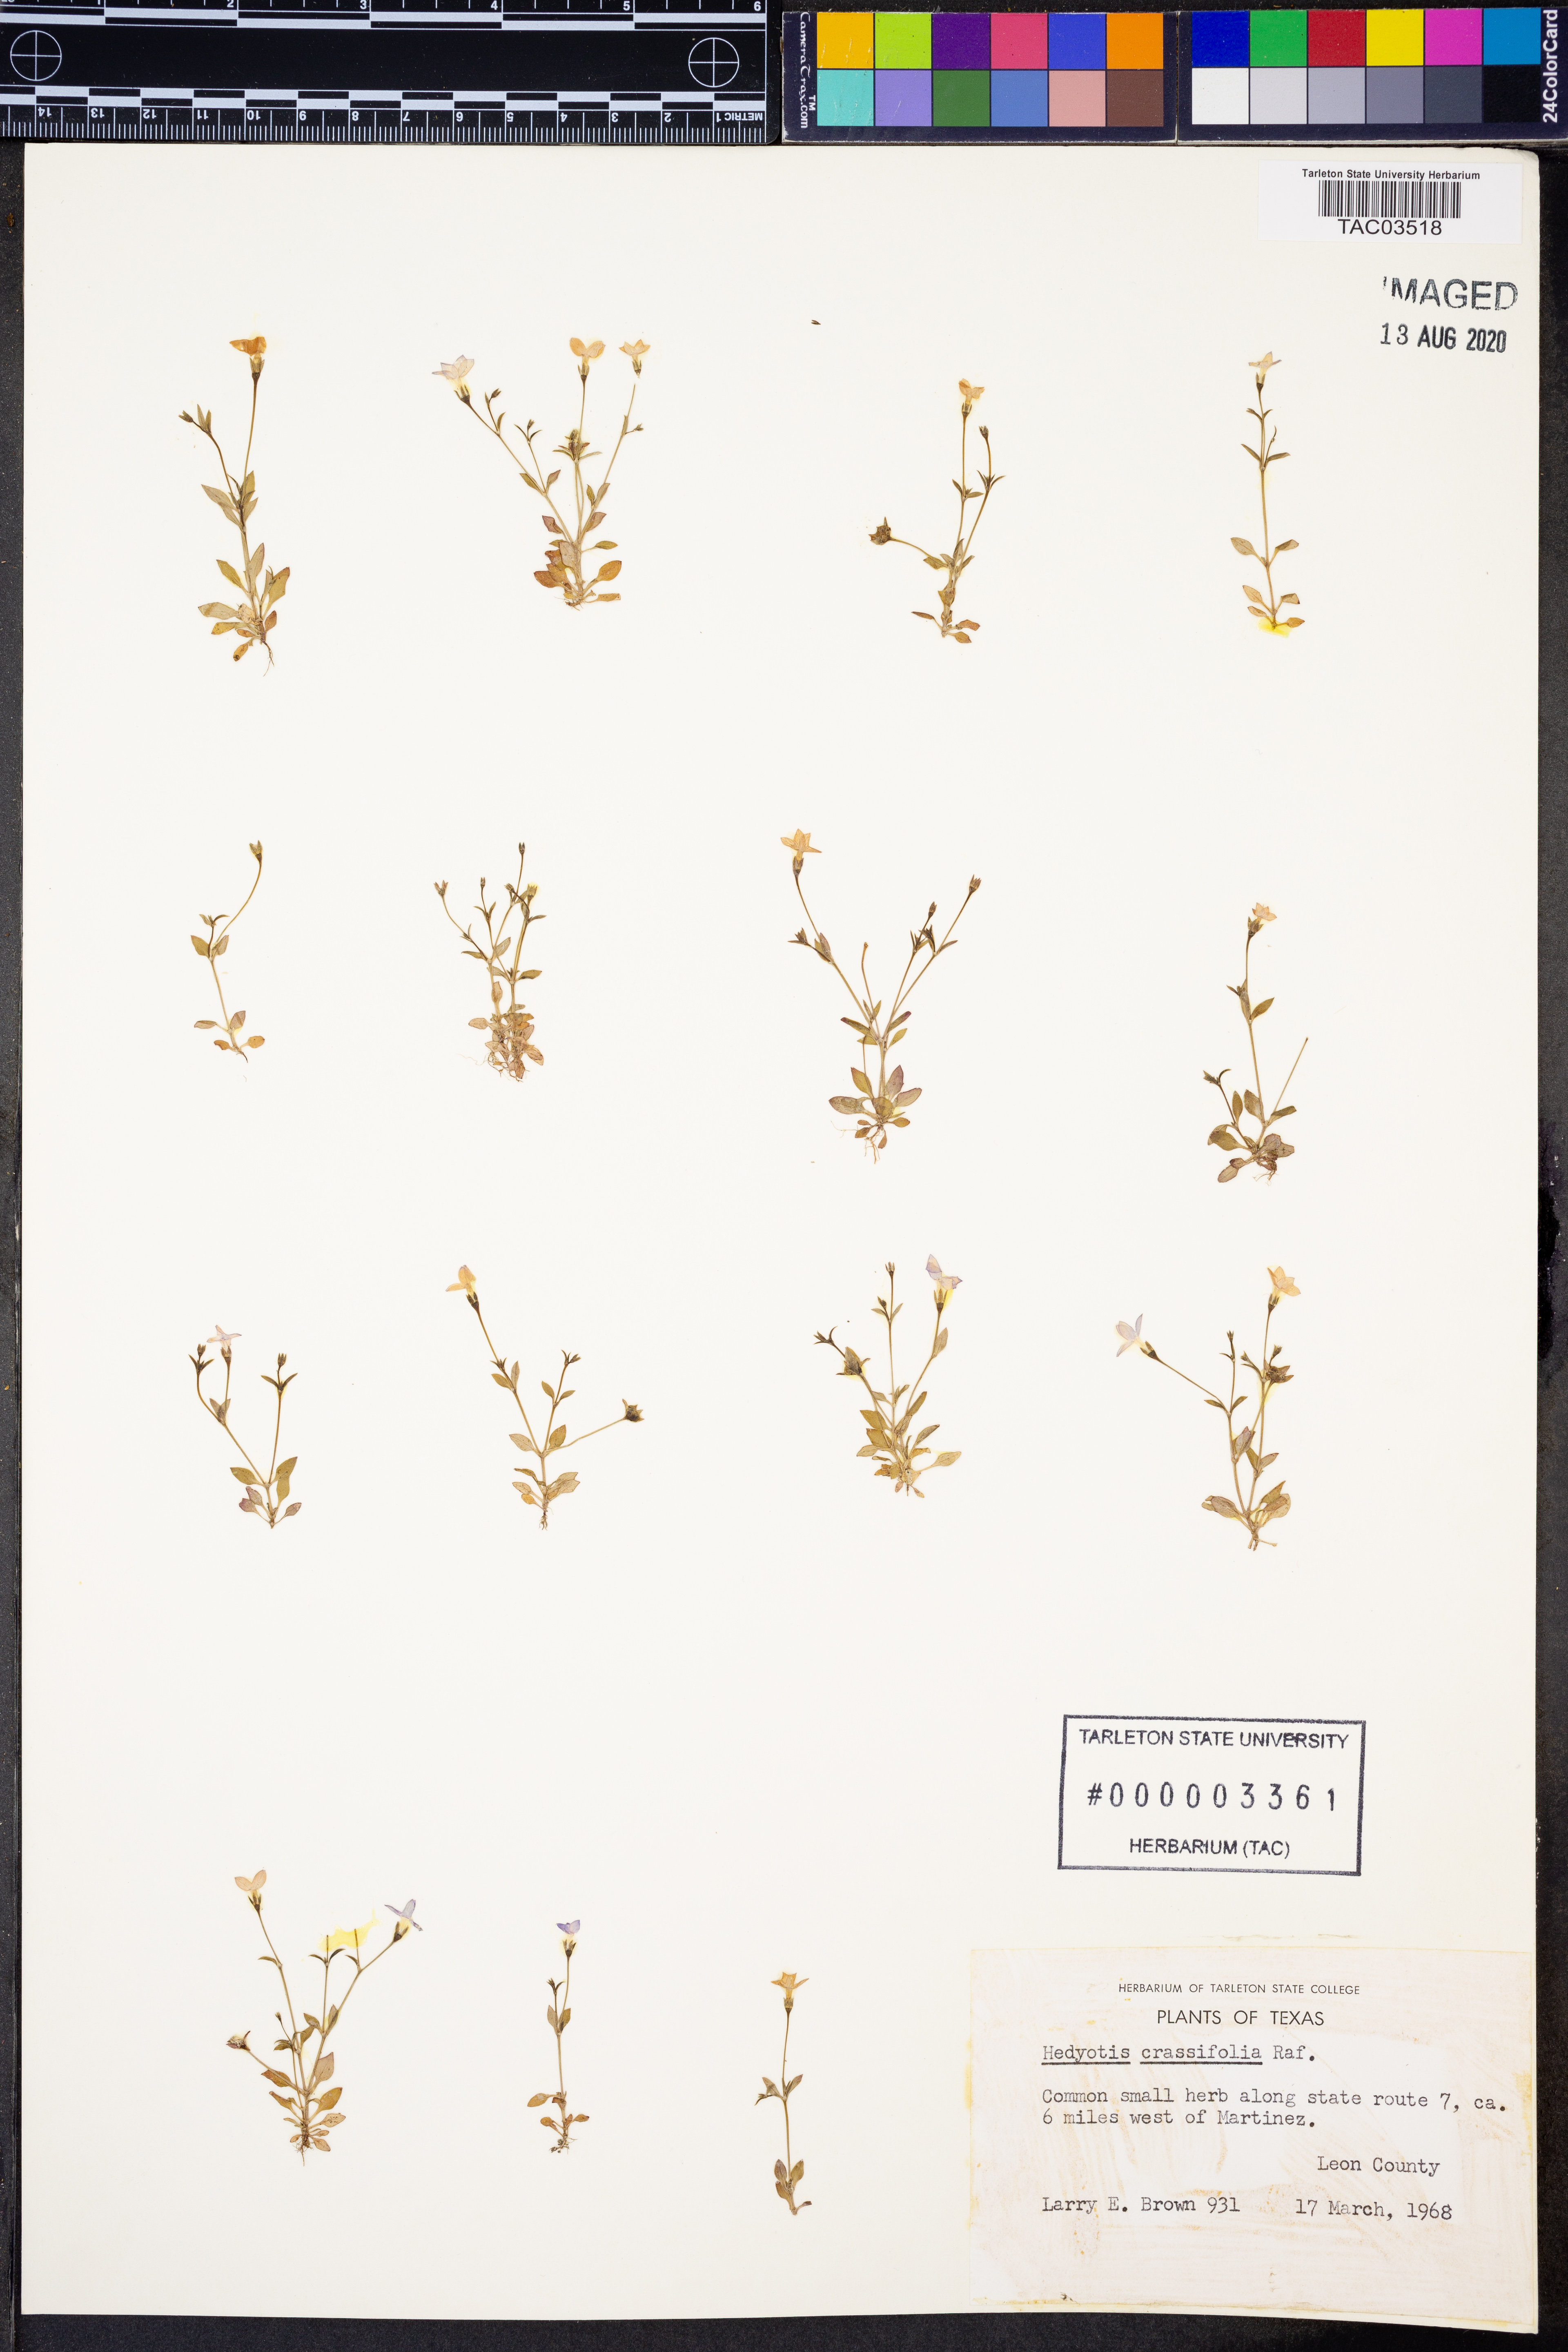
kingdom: Plantae
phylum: Tracheophyta
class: Magnoliopsida
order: Gentianales
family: Rubiaceae
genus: Houstonia
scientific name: Houstonia pusilla
